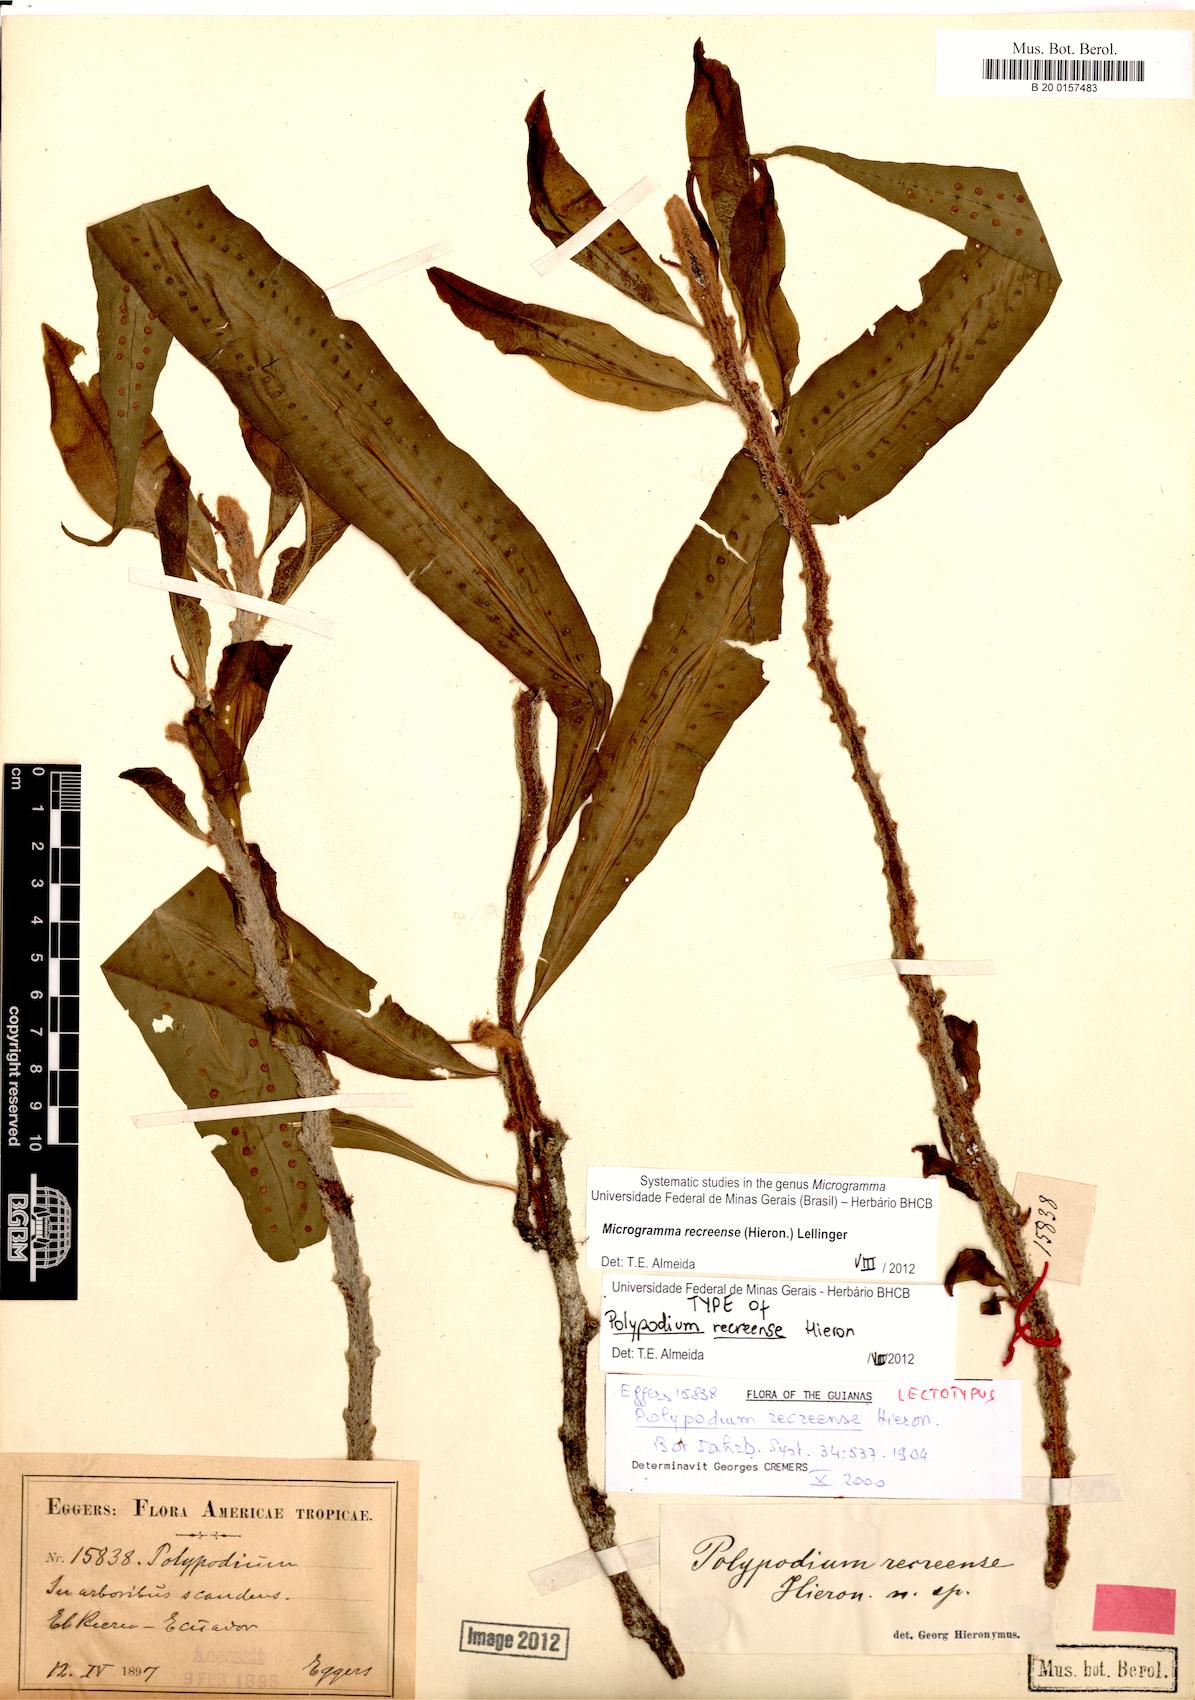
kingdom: Plantae
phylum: Tracheophyta
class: Polypodiopsida
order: Polypodiales
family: Polypodiaceae
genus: Microgramma
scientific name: Microgramma recreense
